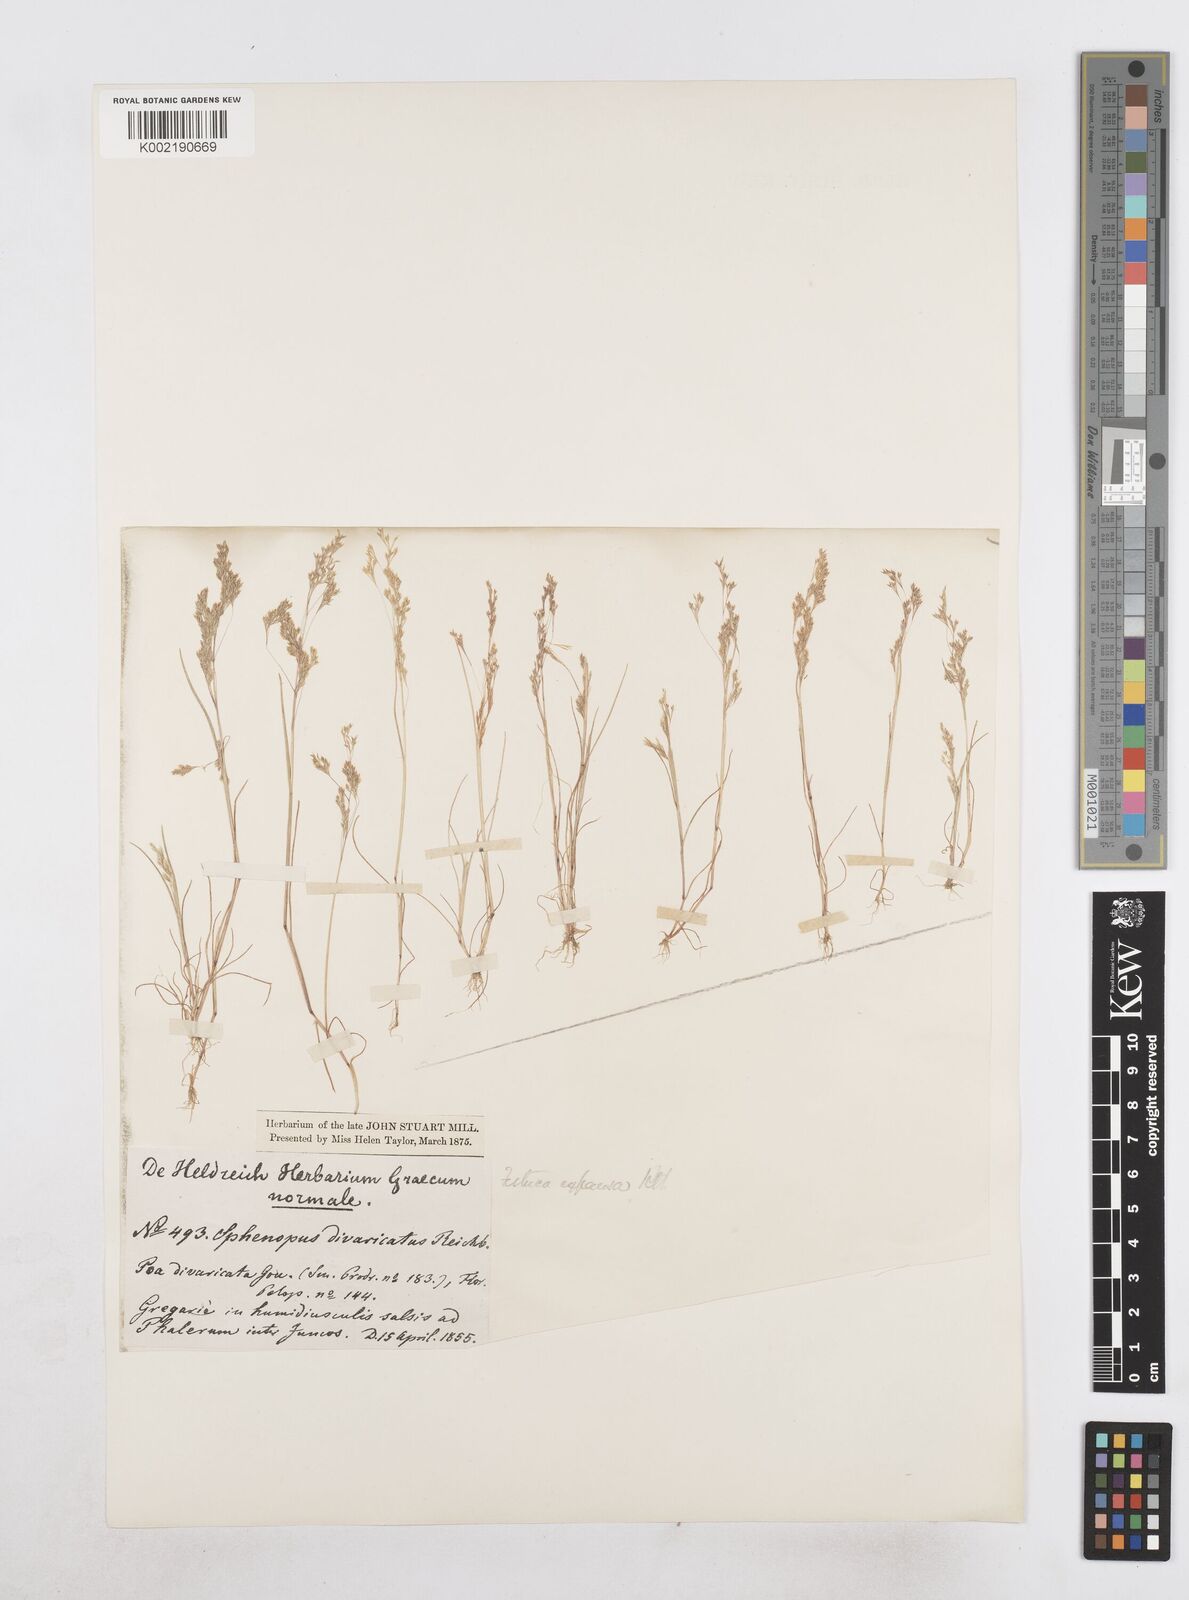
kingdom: Plantae
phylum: Tracheophyta
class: Liliopsida
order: Poales
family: Poaceae
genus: Sphenopus
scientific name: Sphenopus divaricatus
